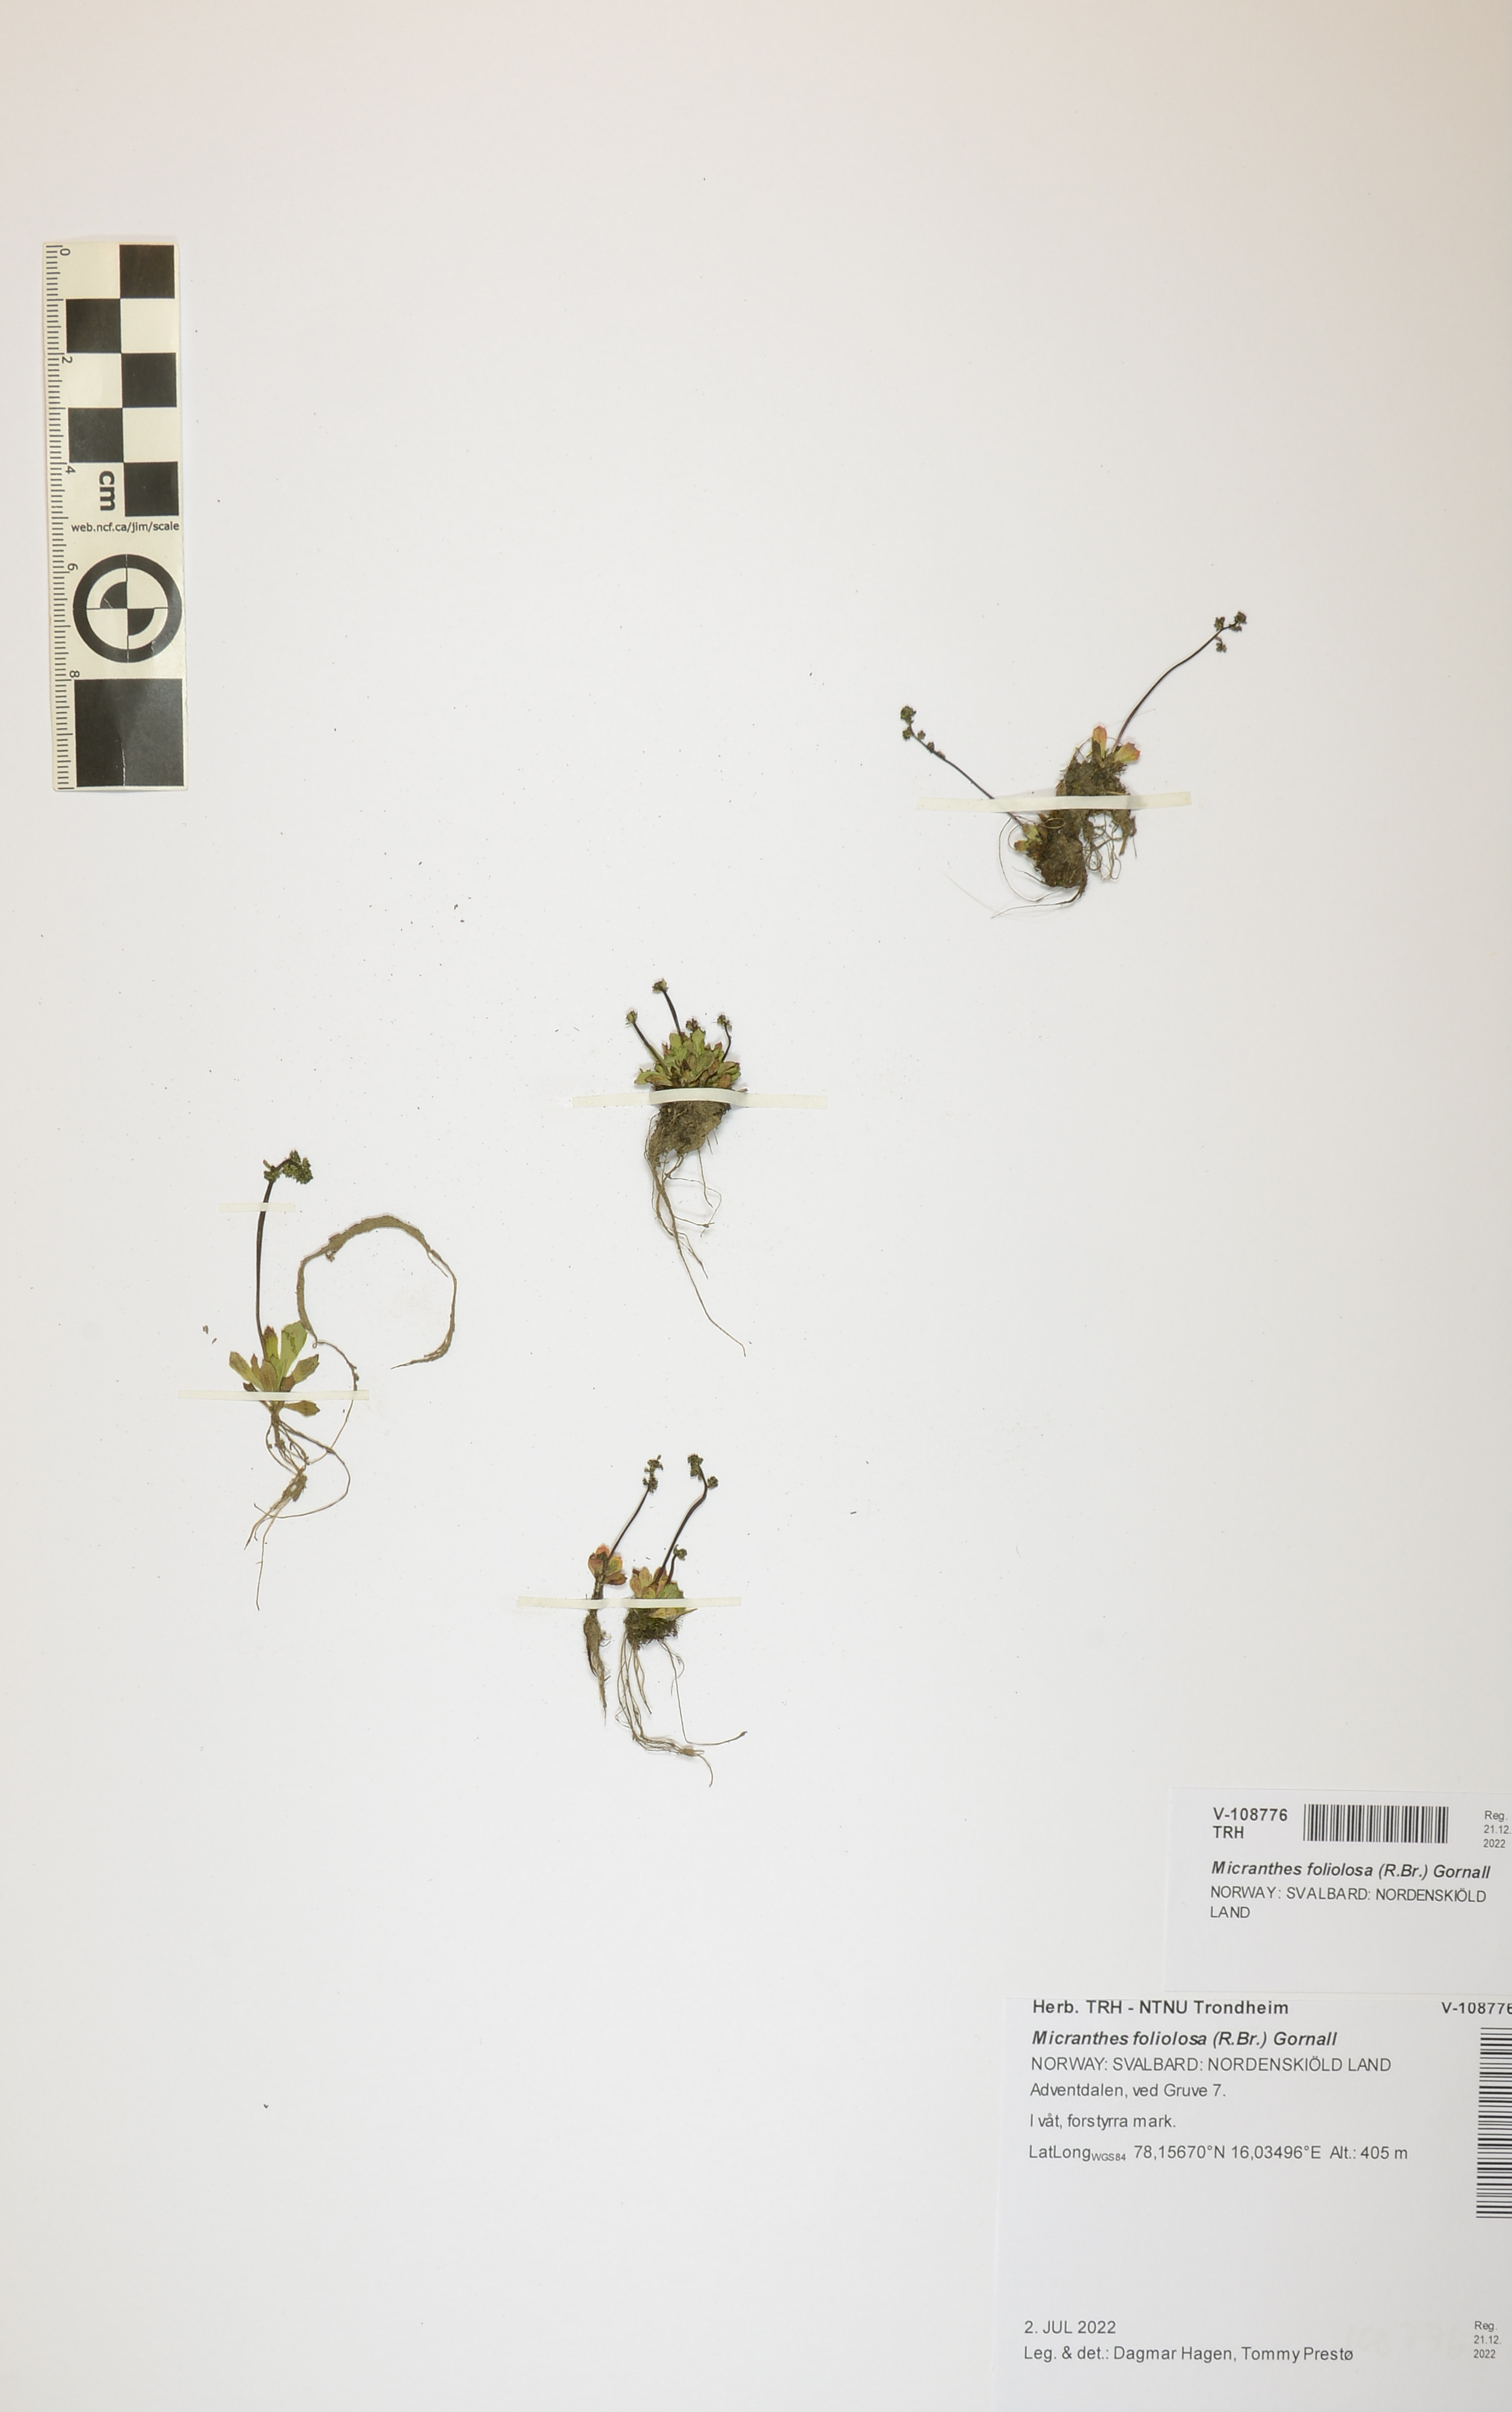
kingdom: Plantae
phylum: Tracheophyta
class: Magnoliopsida
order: Saxifragales
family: Saxifragaceae
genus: Micranthes
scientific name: Micranthes foliolosa
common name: Leafystem saxifrage
